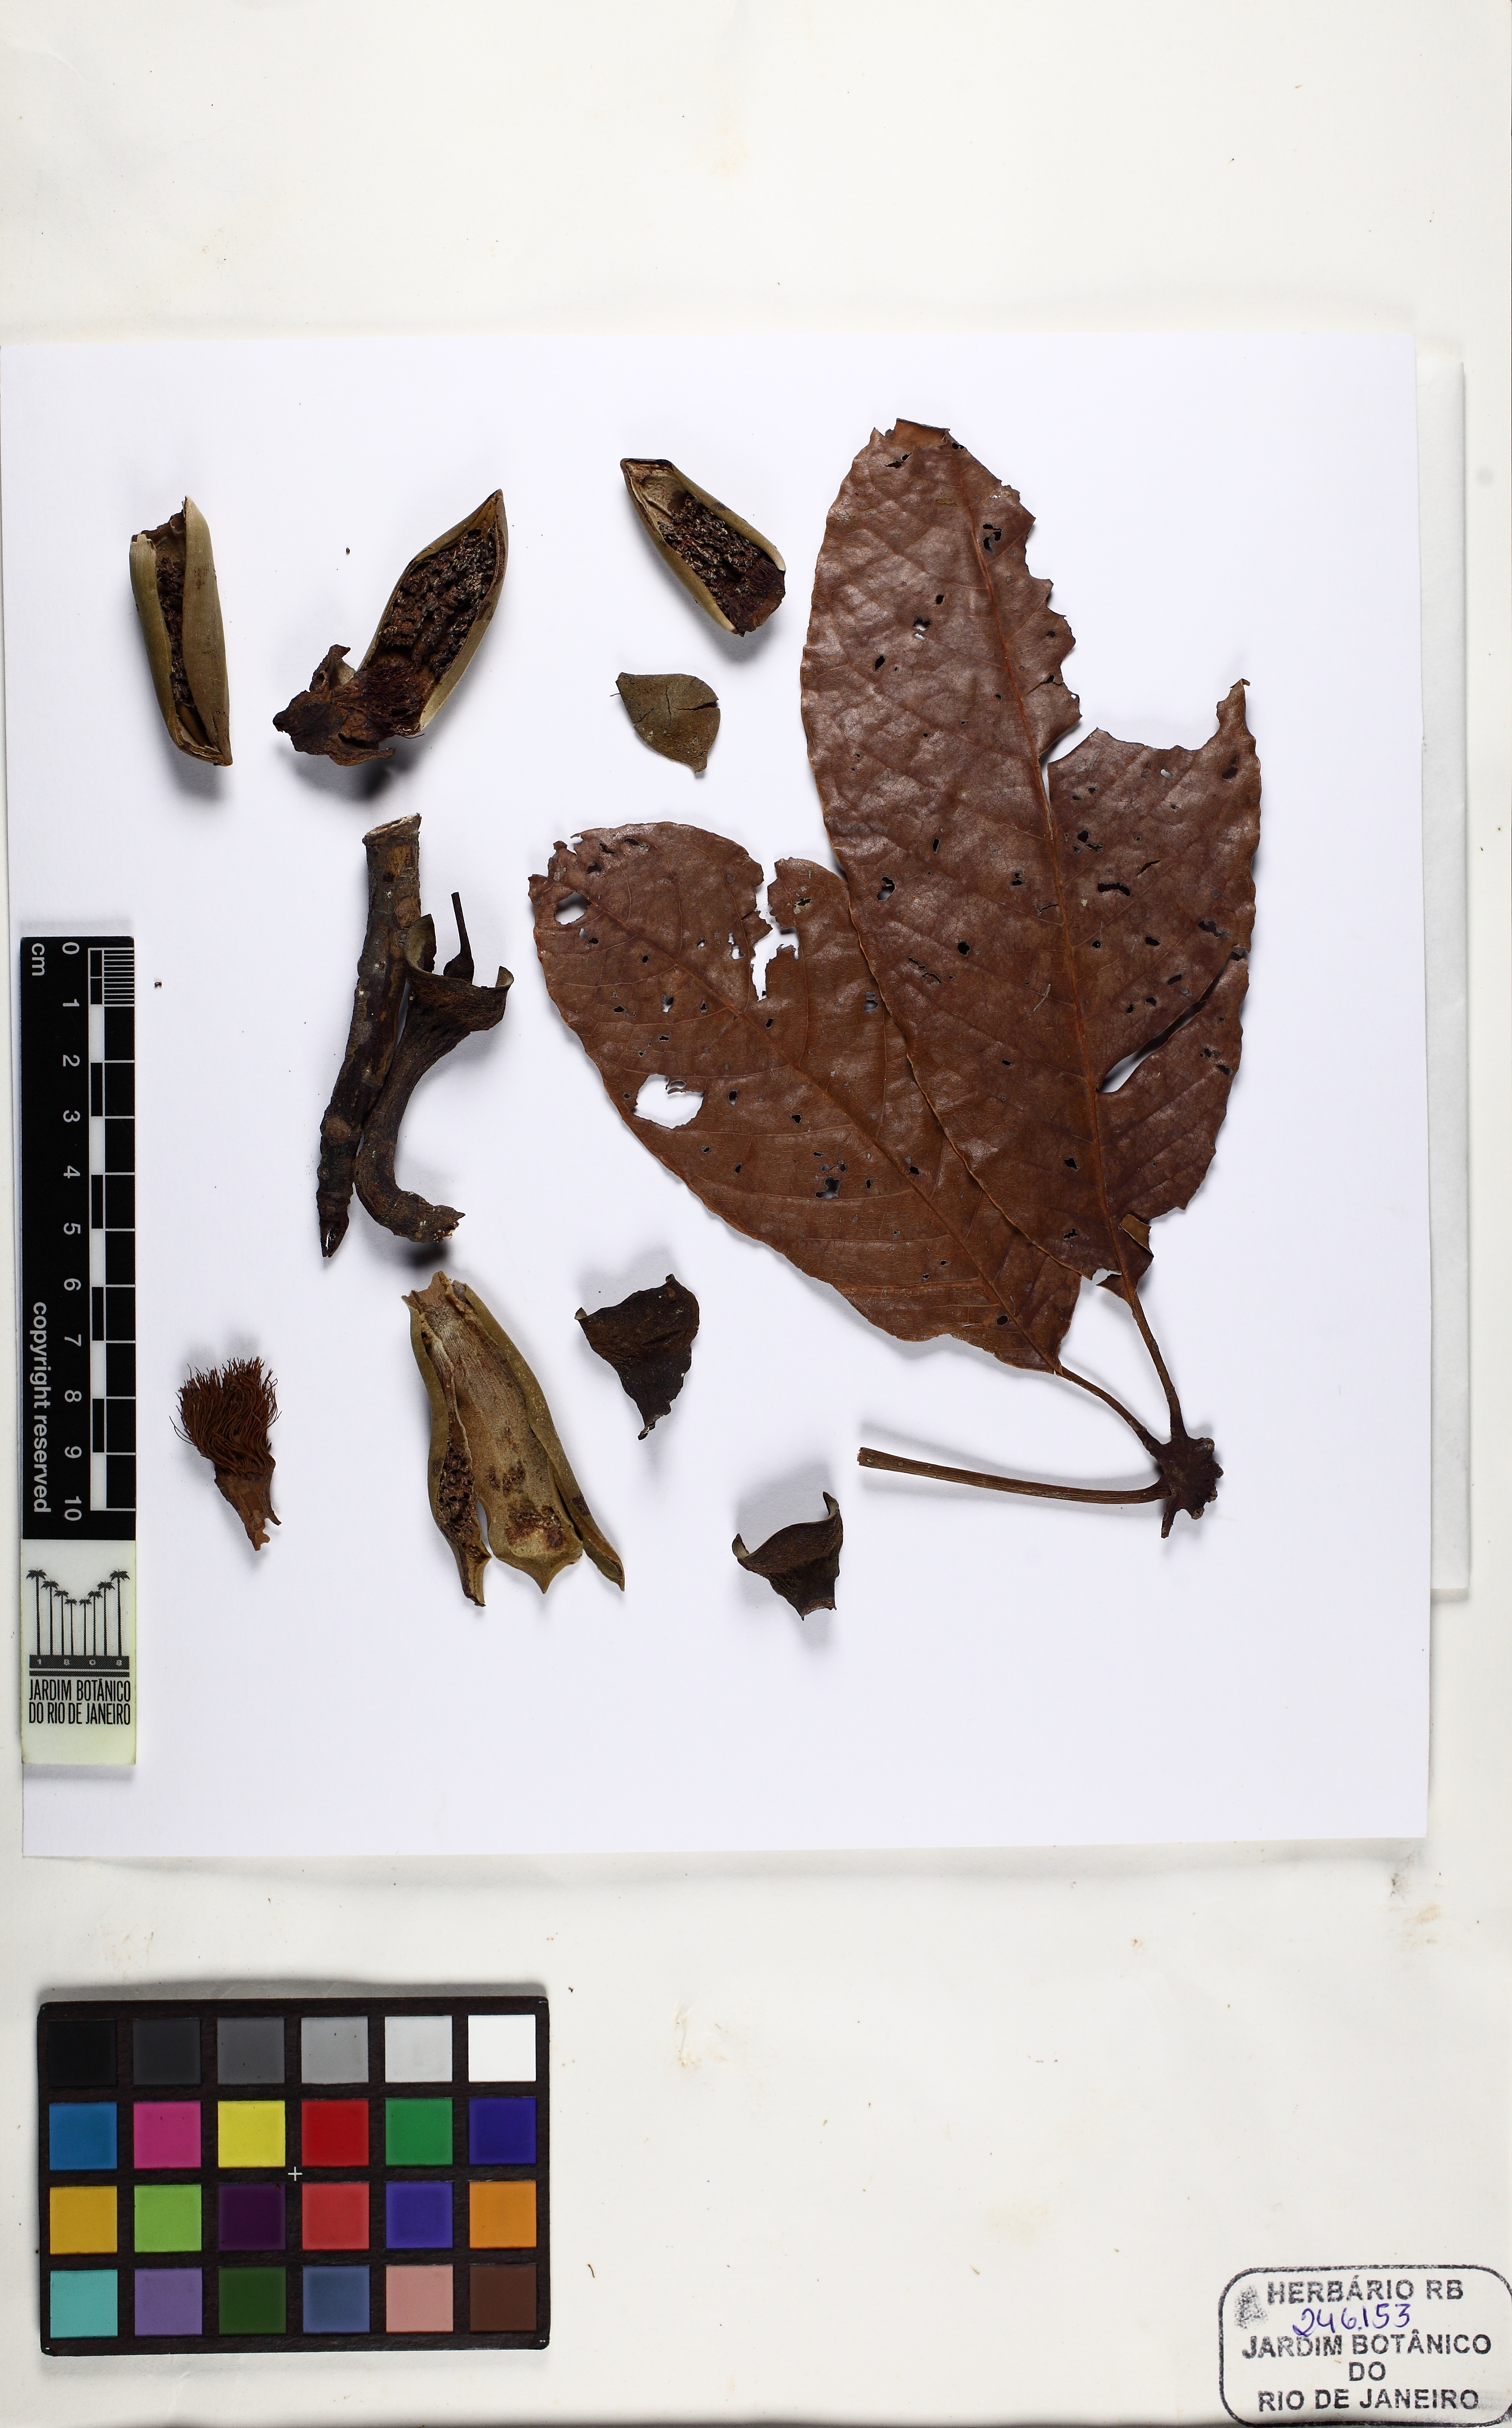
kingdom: Plantae
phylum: Tracheophyta
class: Magnoliopsida
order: Malvales
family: Malvaceae
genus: Pseudobombax
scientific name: Pseudobombax munguba
